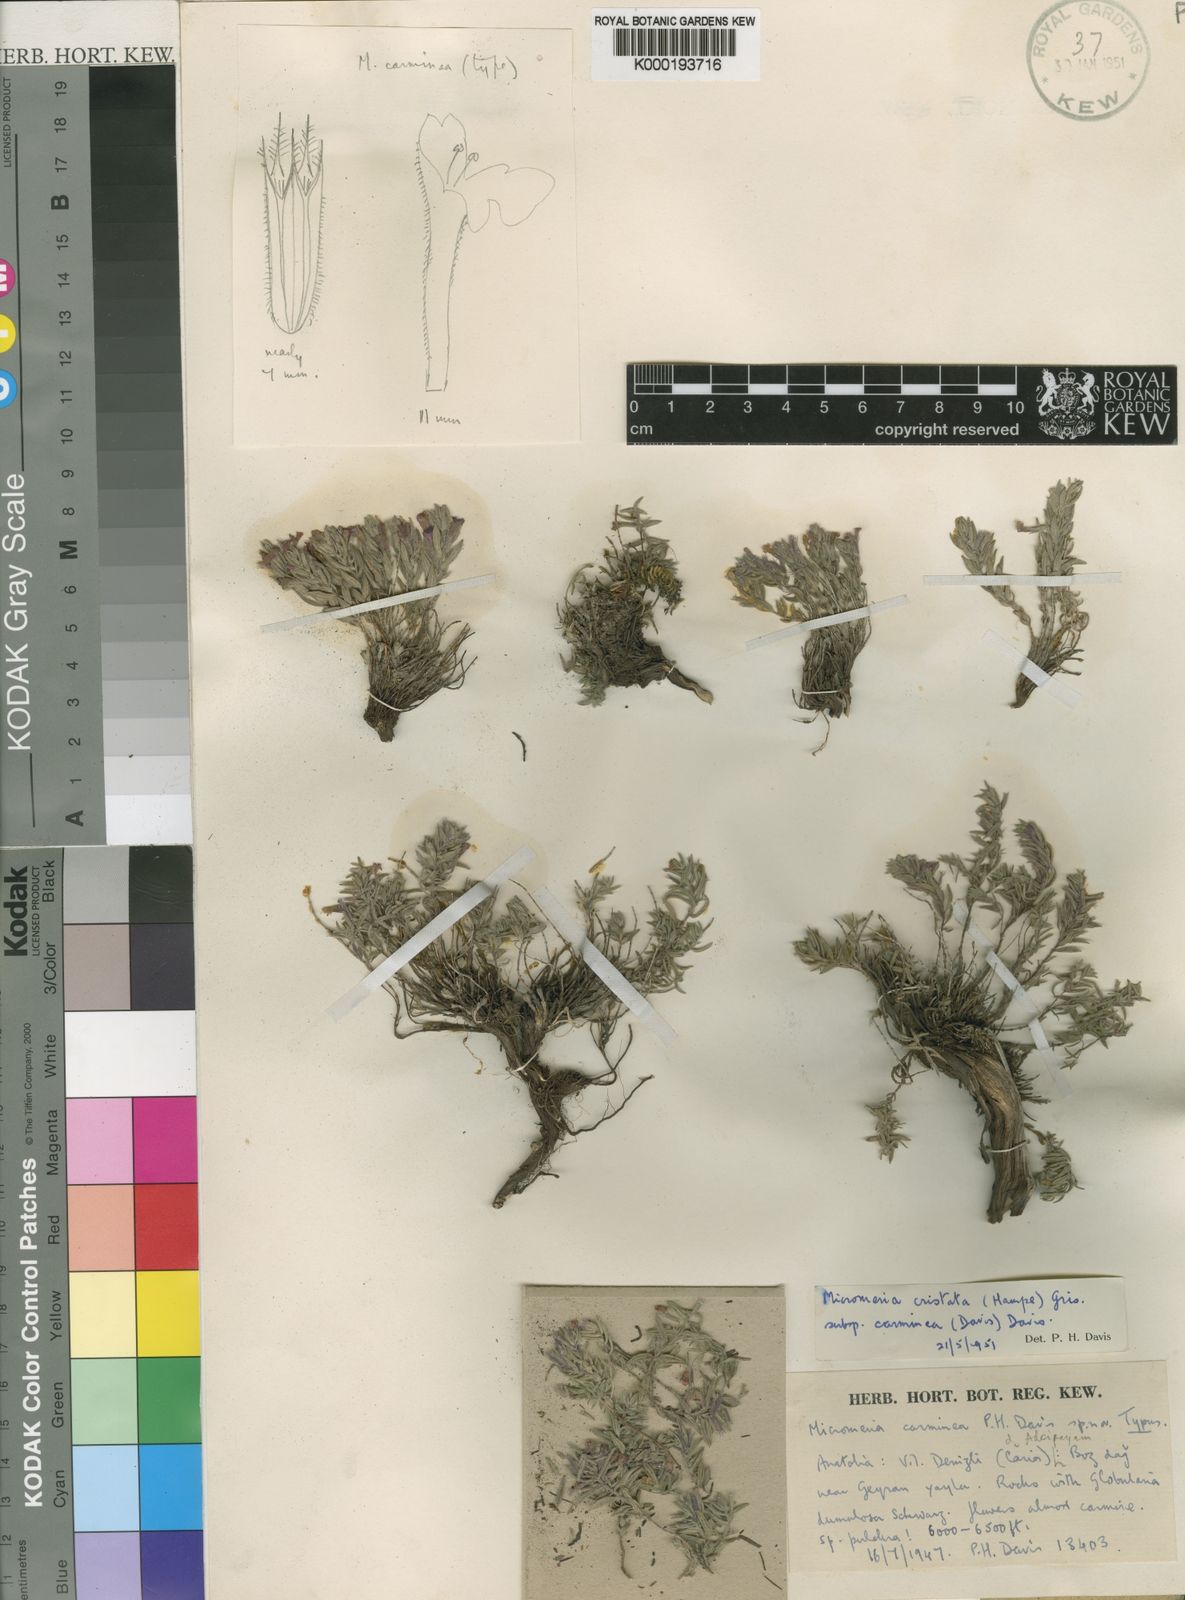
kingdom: Plantae
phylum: Tracheophyta
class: Magnoliopsida
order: Lamiales
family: Lamiaceae
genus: Micromeria
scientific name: Micromeria cristata
